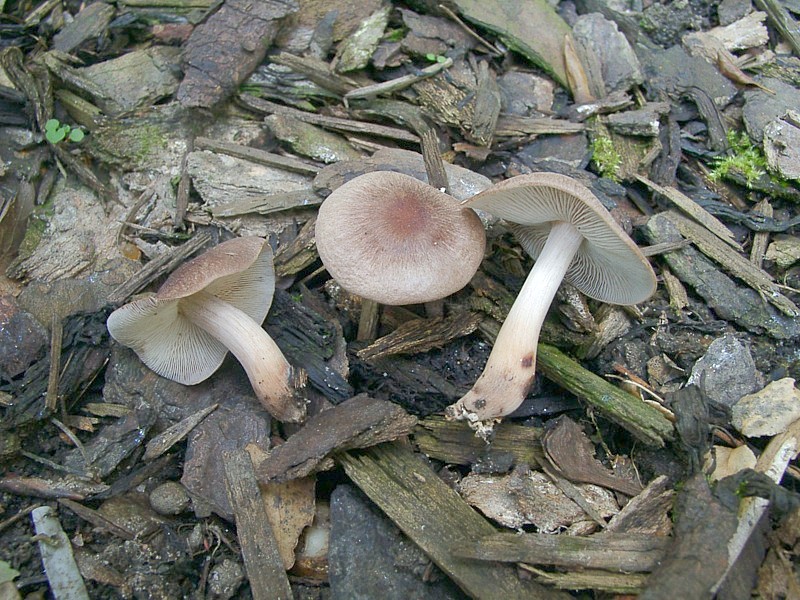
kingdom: Fungi
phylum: Basidiomycota
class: Agaricomycetes
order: Agaricales
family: Omphalotaceae
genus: Collybiopsis
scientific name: Collybiopsis luxurians
